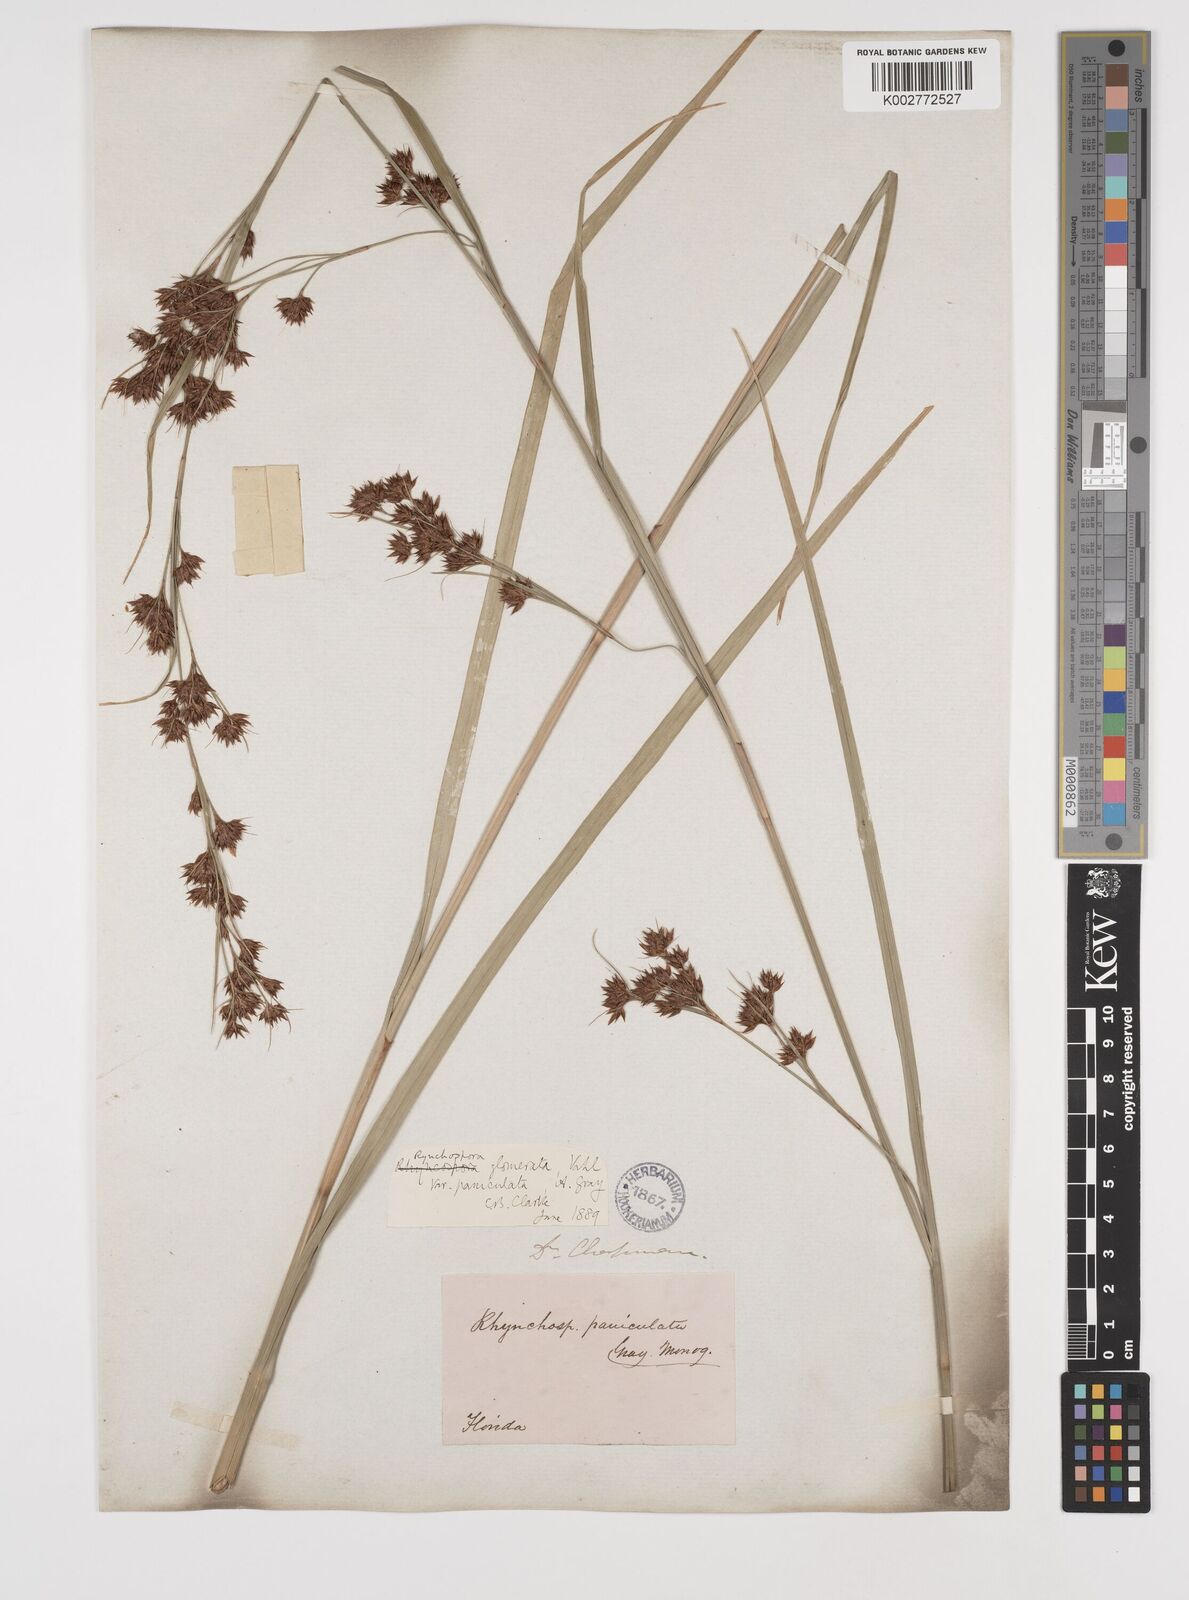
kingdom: Plantae
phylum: Tracheophyta
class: Liliopsida
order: Poales
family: Cyperaceae
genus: Rhynchospora
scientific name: Rhynchospora glomerata
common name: Cluster beak sedge
